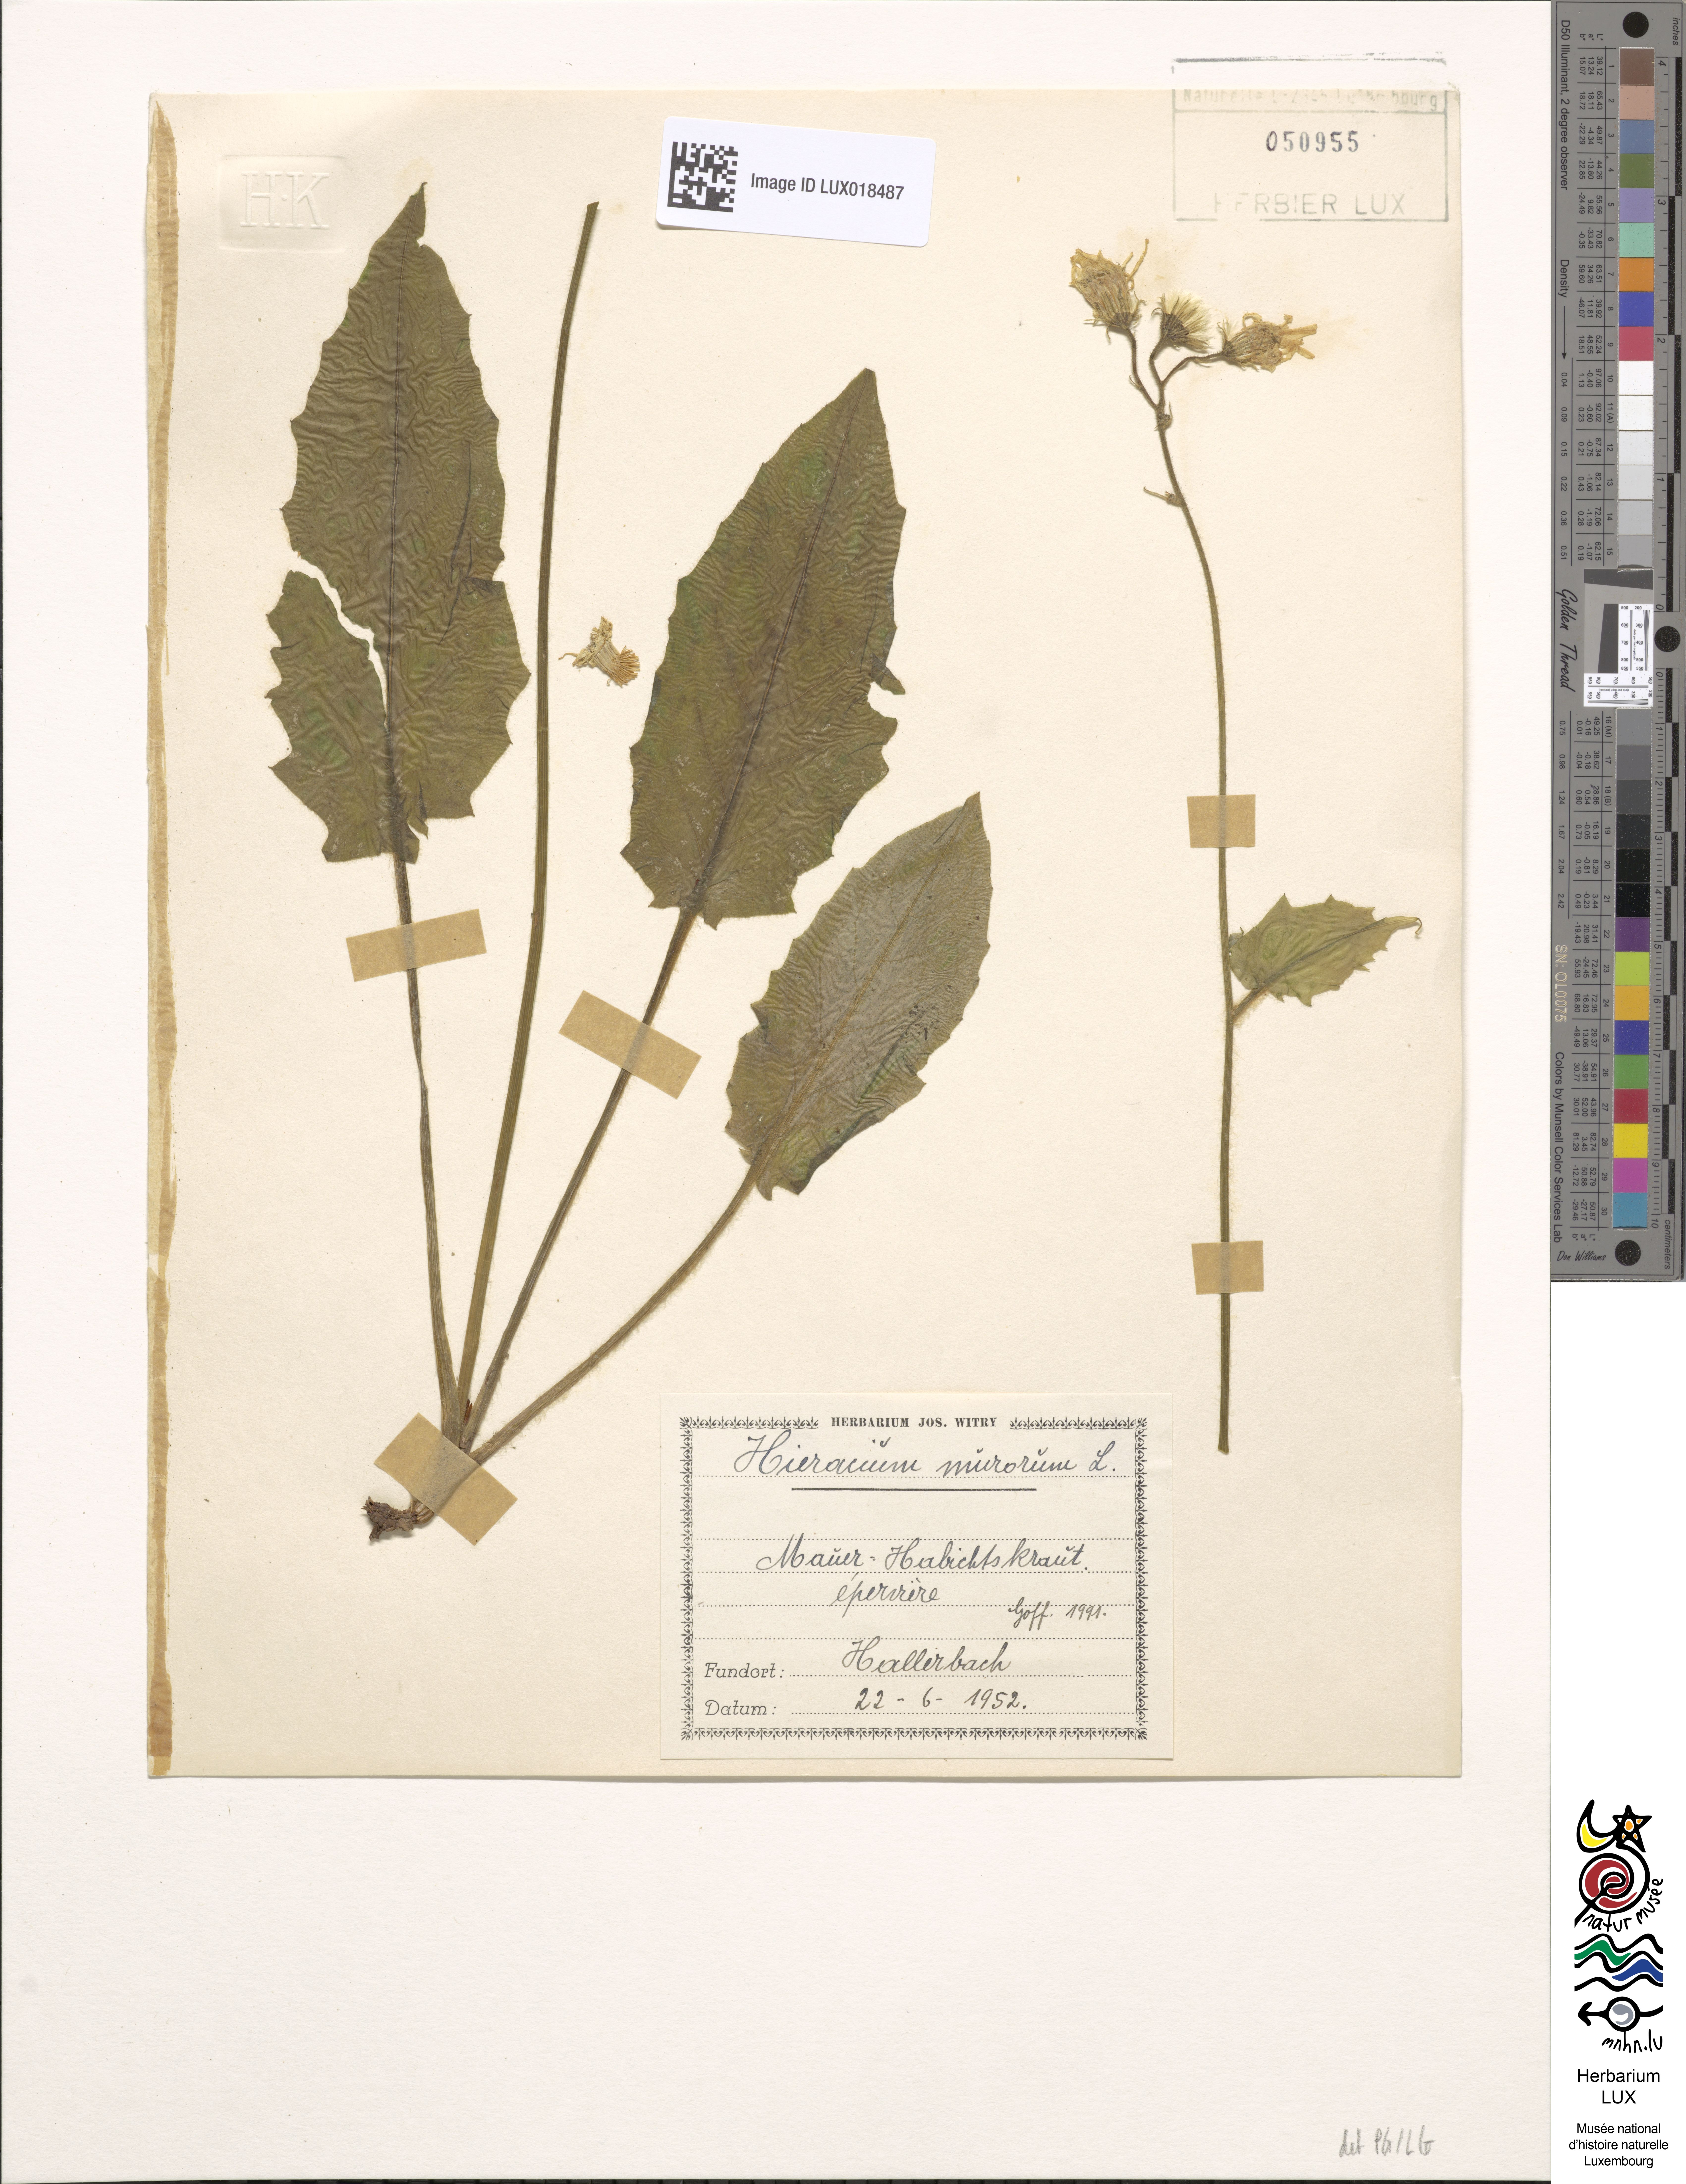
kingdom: Plantae
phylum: Tracheophyta
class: Magnoliopsida
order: Asterales
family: Asteraceae
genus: Hieracium
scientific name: Hieracium murorum
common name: Wall hawkweed
